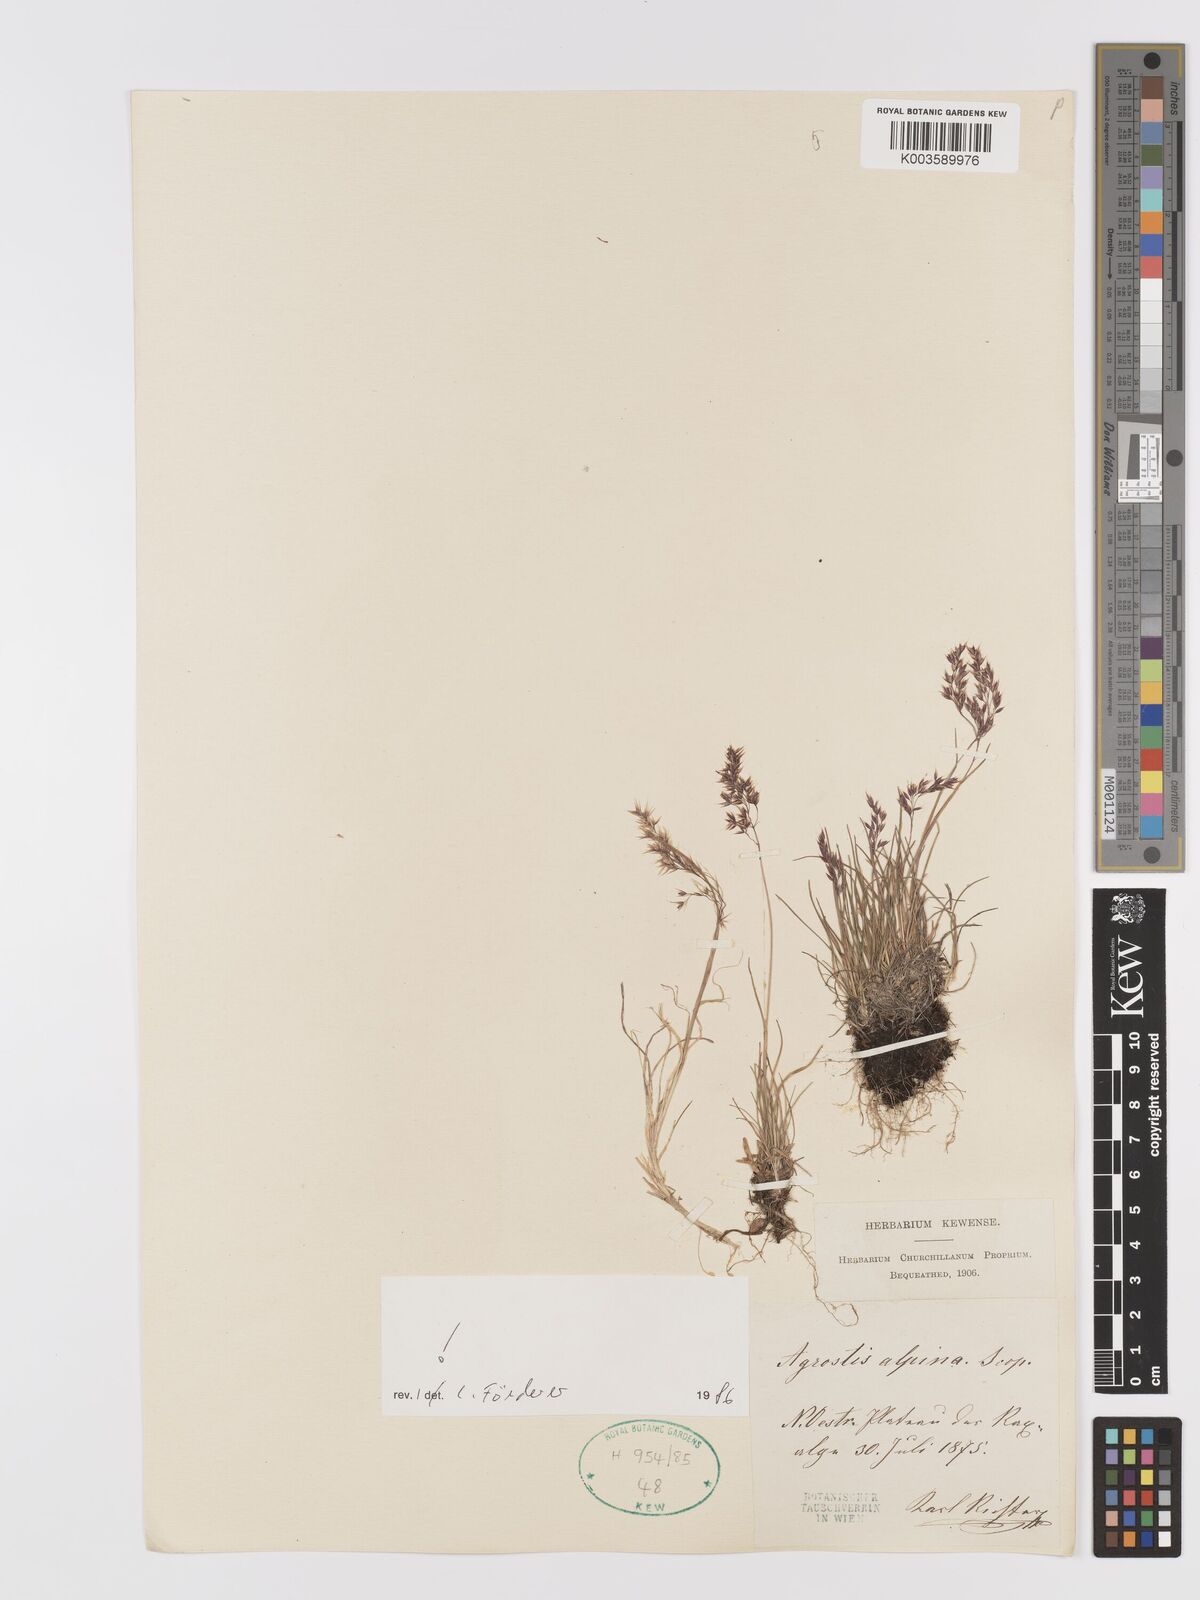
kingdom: Plantae
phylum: Tracheophyta
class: Liliopsida
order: Poales
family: Poaceae
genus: Alpagrostis
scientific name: Alpagrostis alpina
